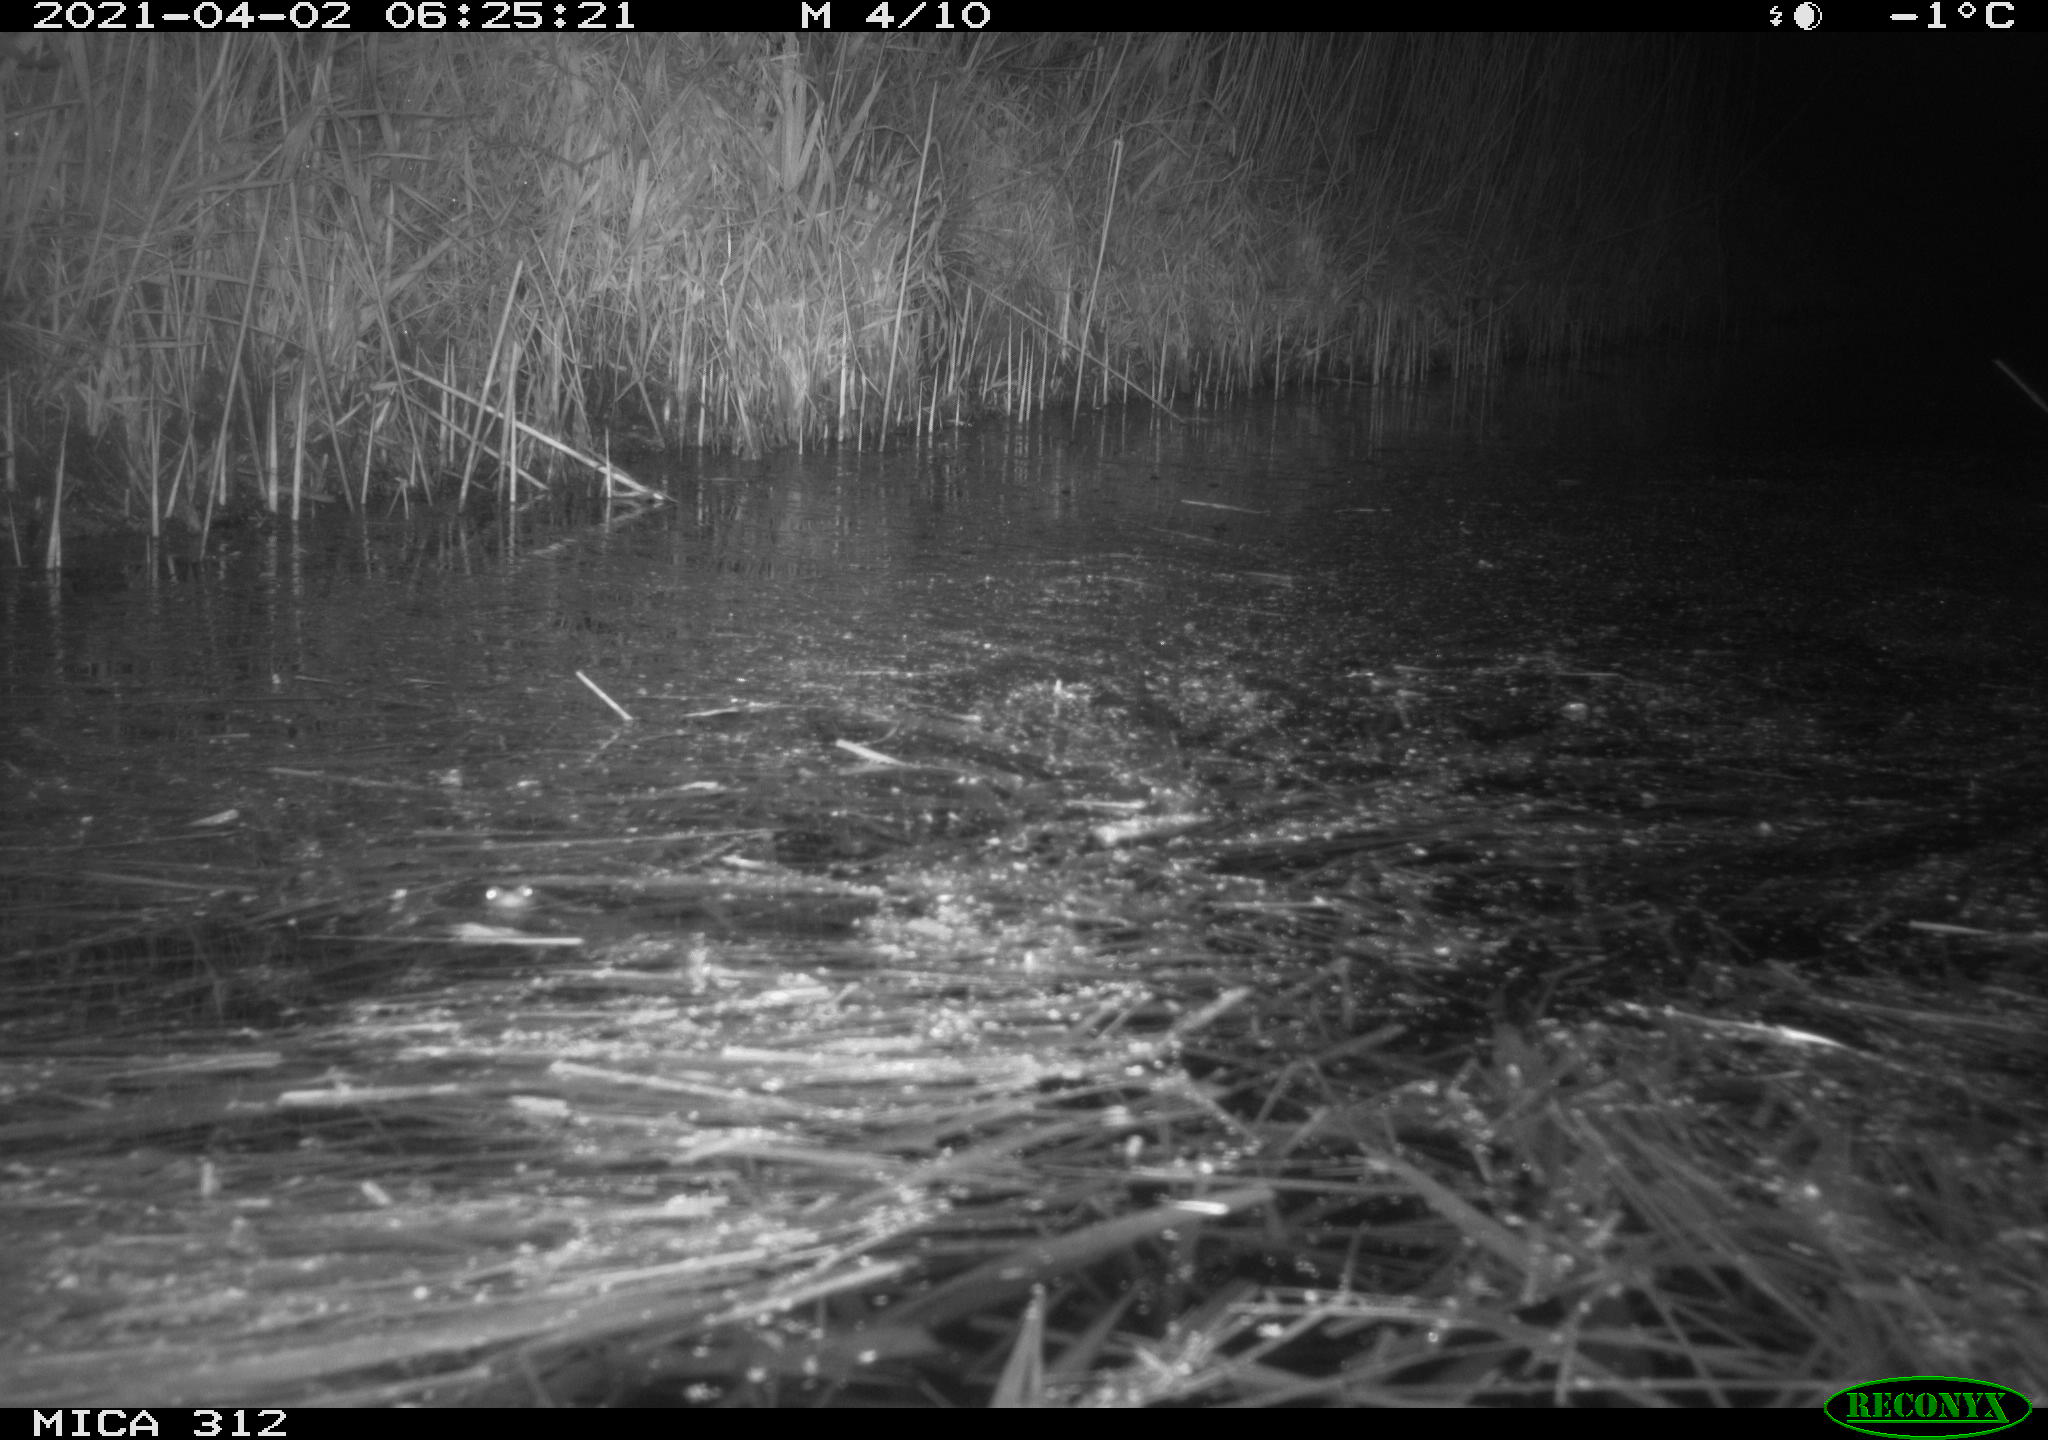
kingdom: Animalia
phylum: Chordata
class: Mammalia
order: Rodentia
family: Muridae
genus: Rattus
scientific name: Rattus norvegicus
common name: Brown rat
